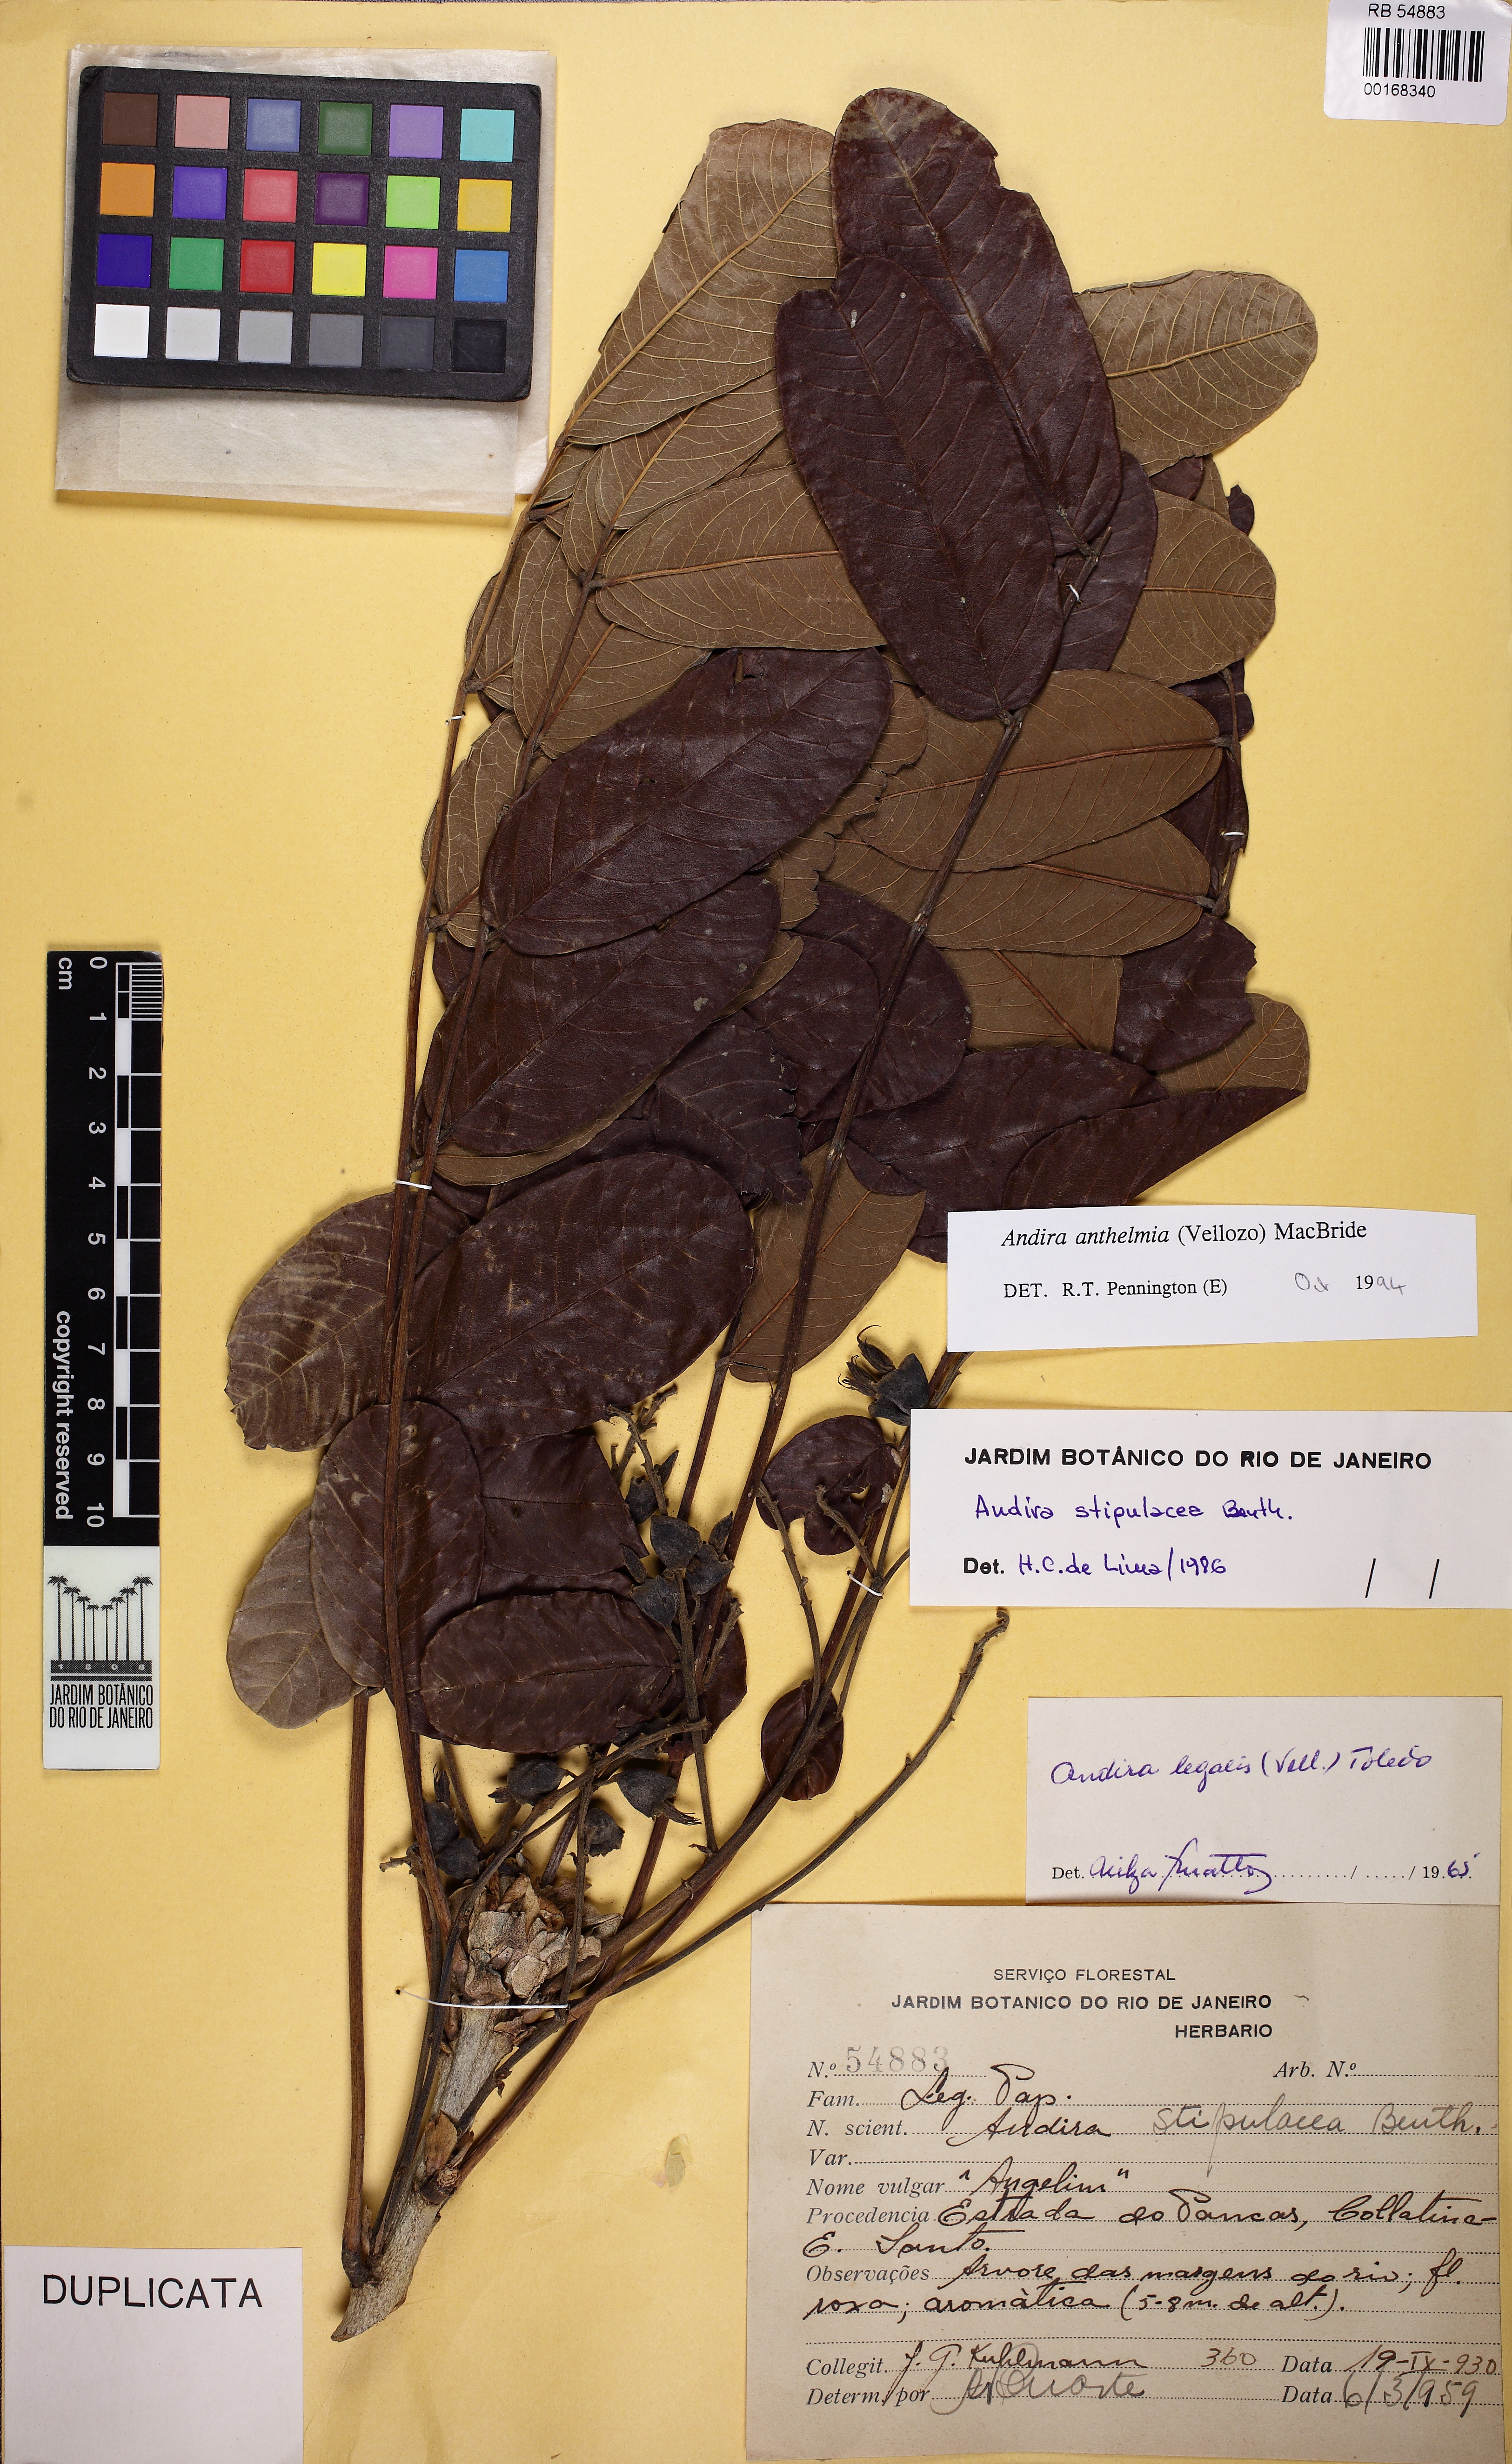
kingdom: Plantae
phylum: Tracheophyta
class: Magnoliopsida
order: Fabales
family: Fabaceae
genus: Andira
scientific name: Andira anthelmia
